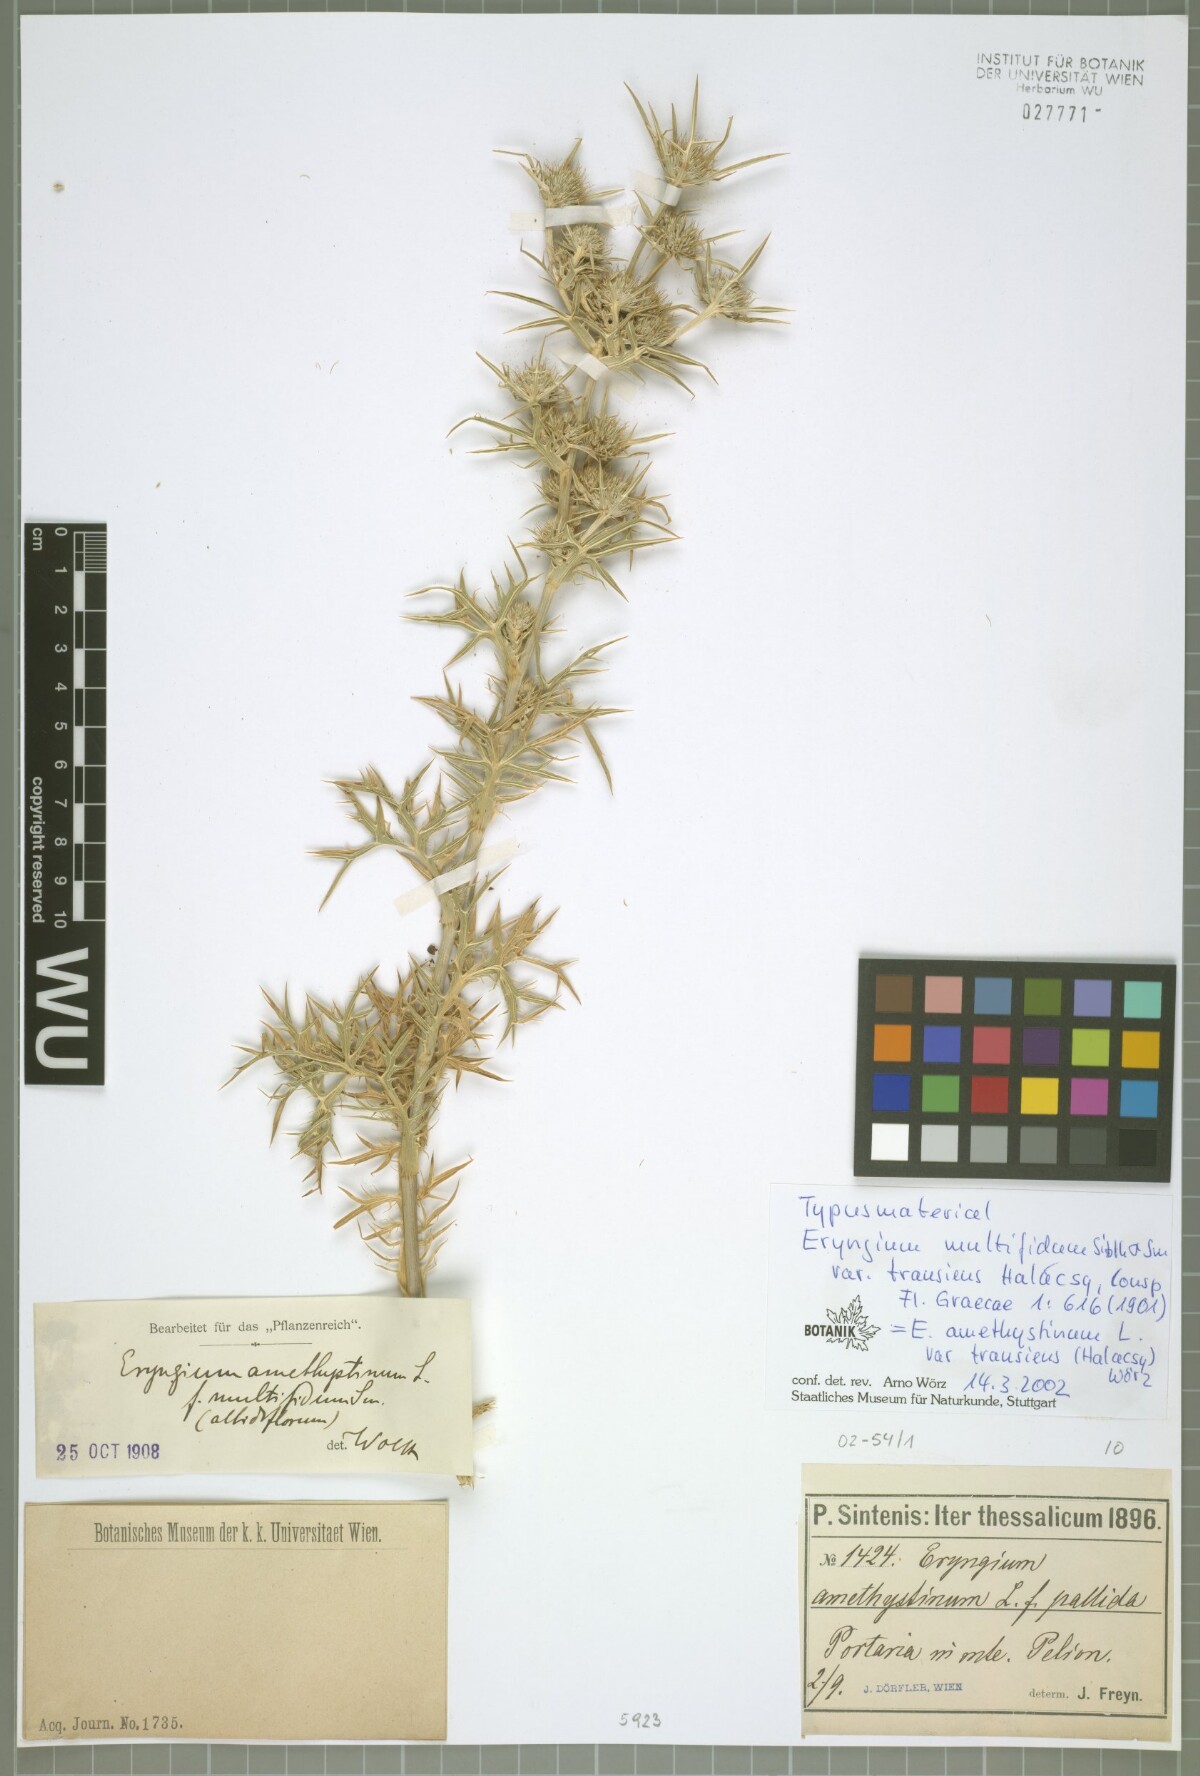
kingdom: Plantae
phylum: Tracheophyta
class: Magnoliopsida
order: Apiales
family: Apiaceae
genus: Eryngium
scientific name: Eryngium amethystinum
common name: Amethyst eryngo
